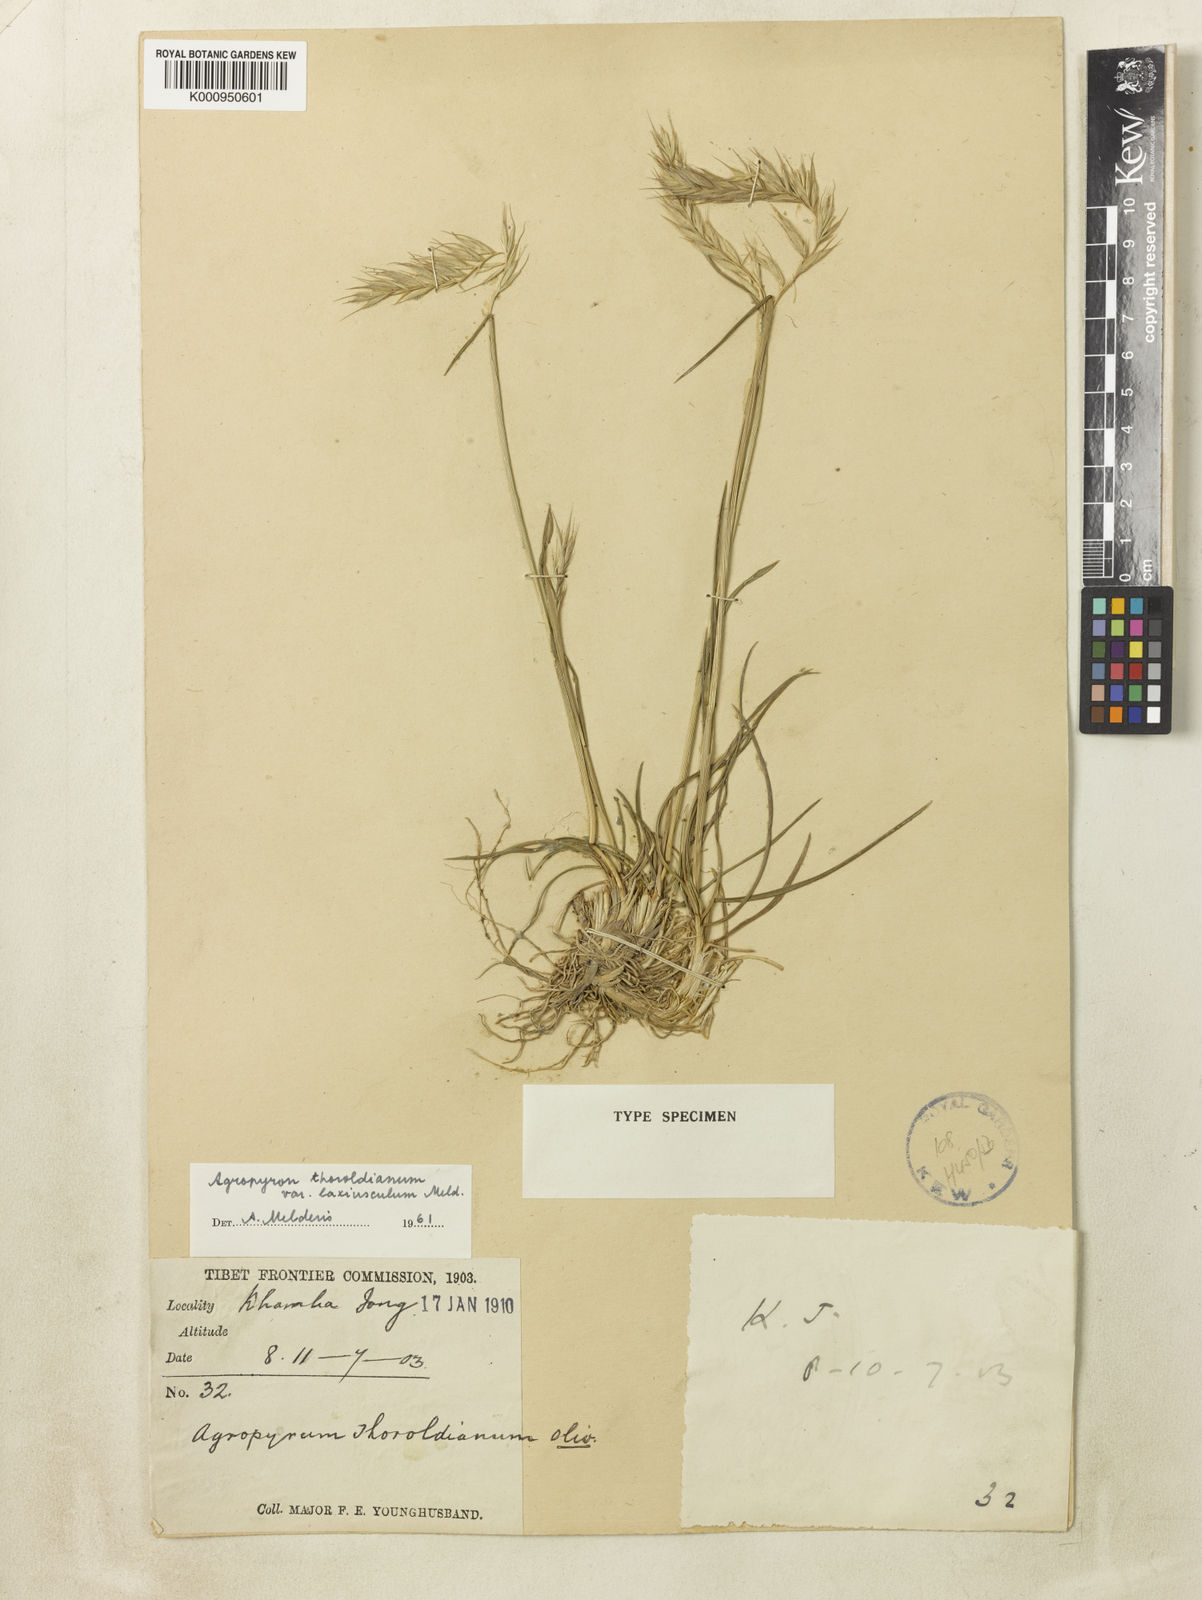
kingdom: Plantae
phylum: Tracheophyta
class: Liliopsida
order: Poales
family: Poaceae
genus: Agropyron
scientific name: Agropyron
